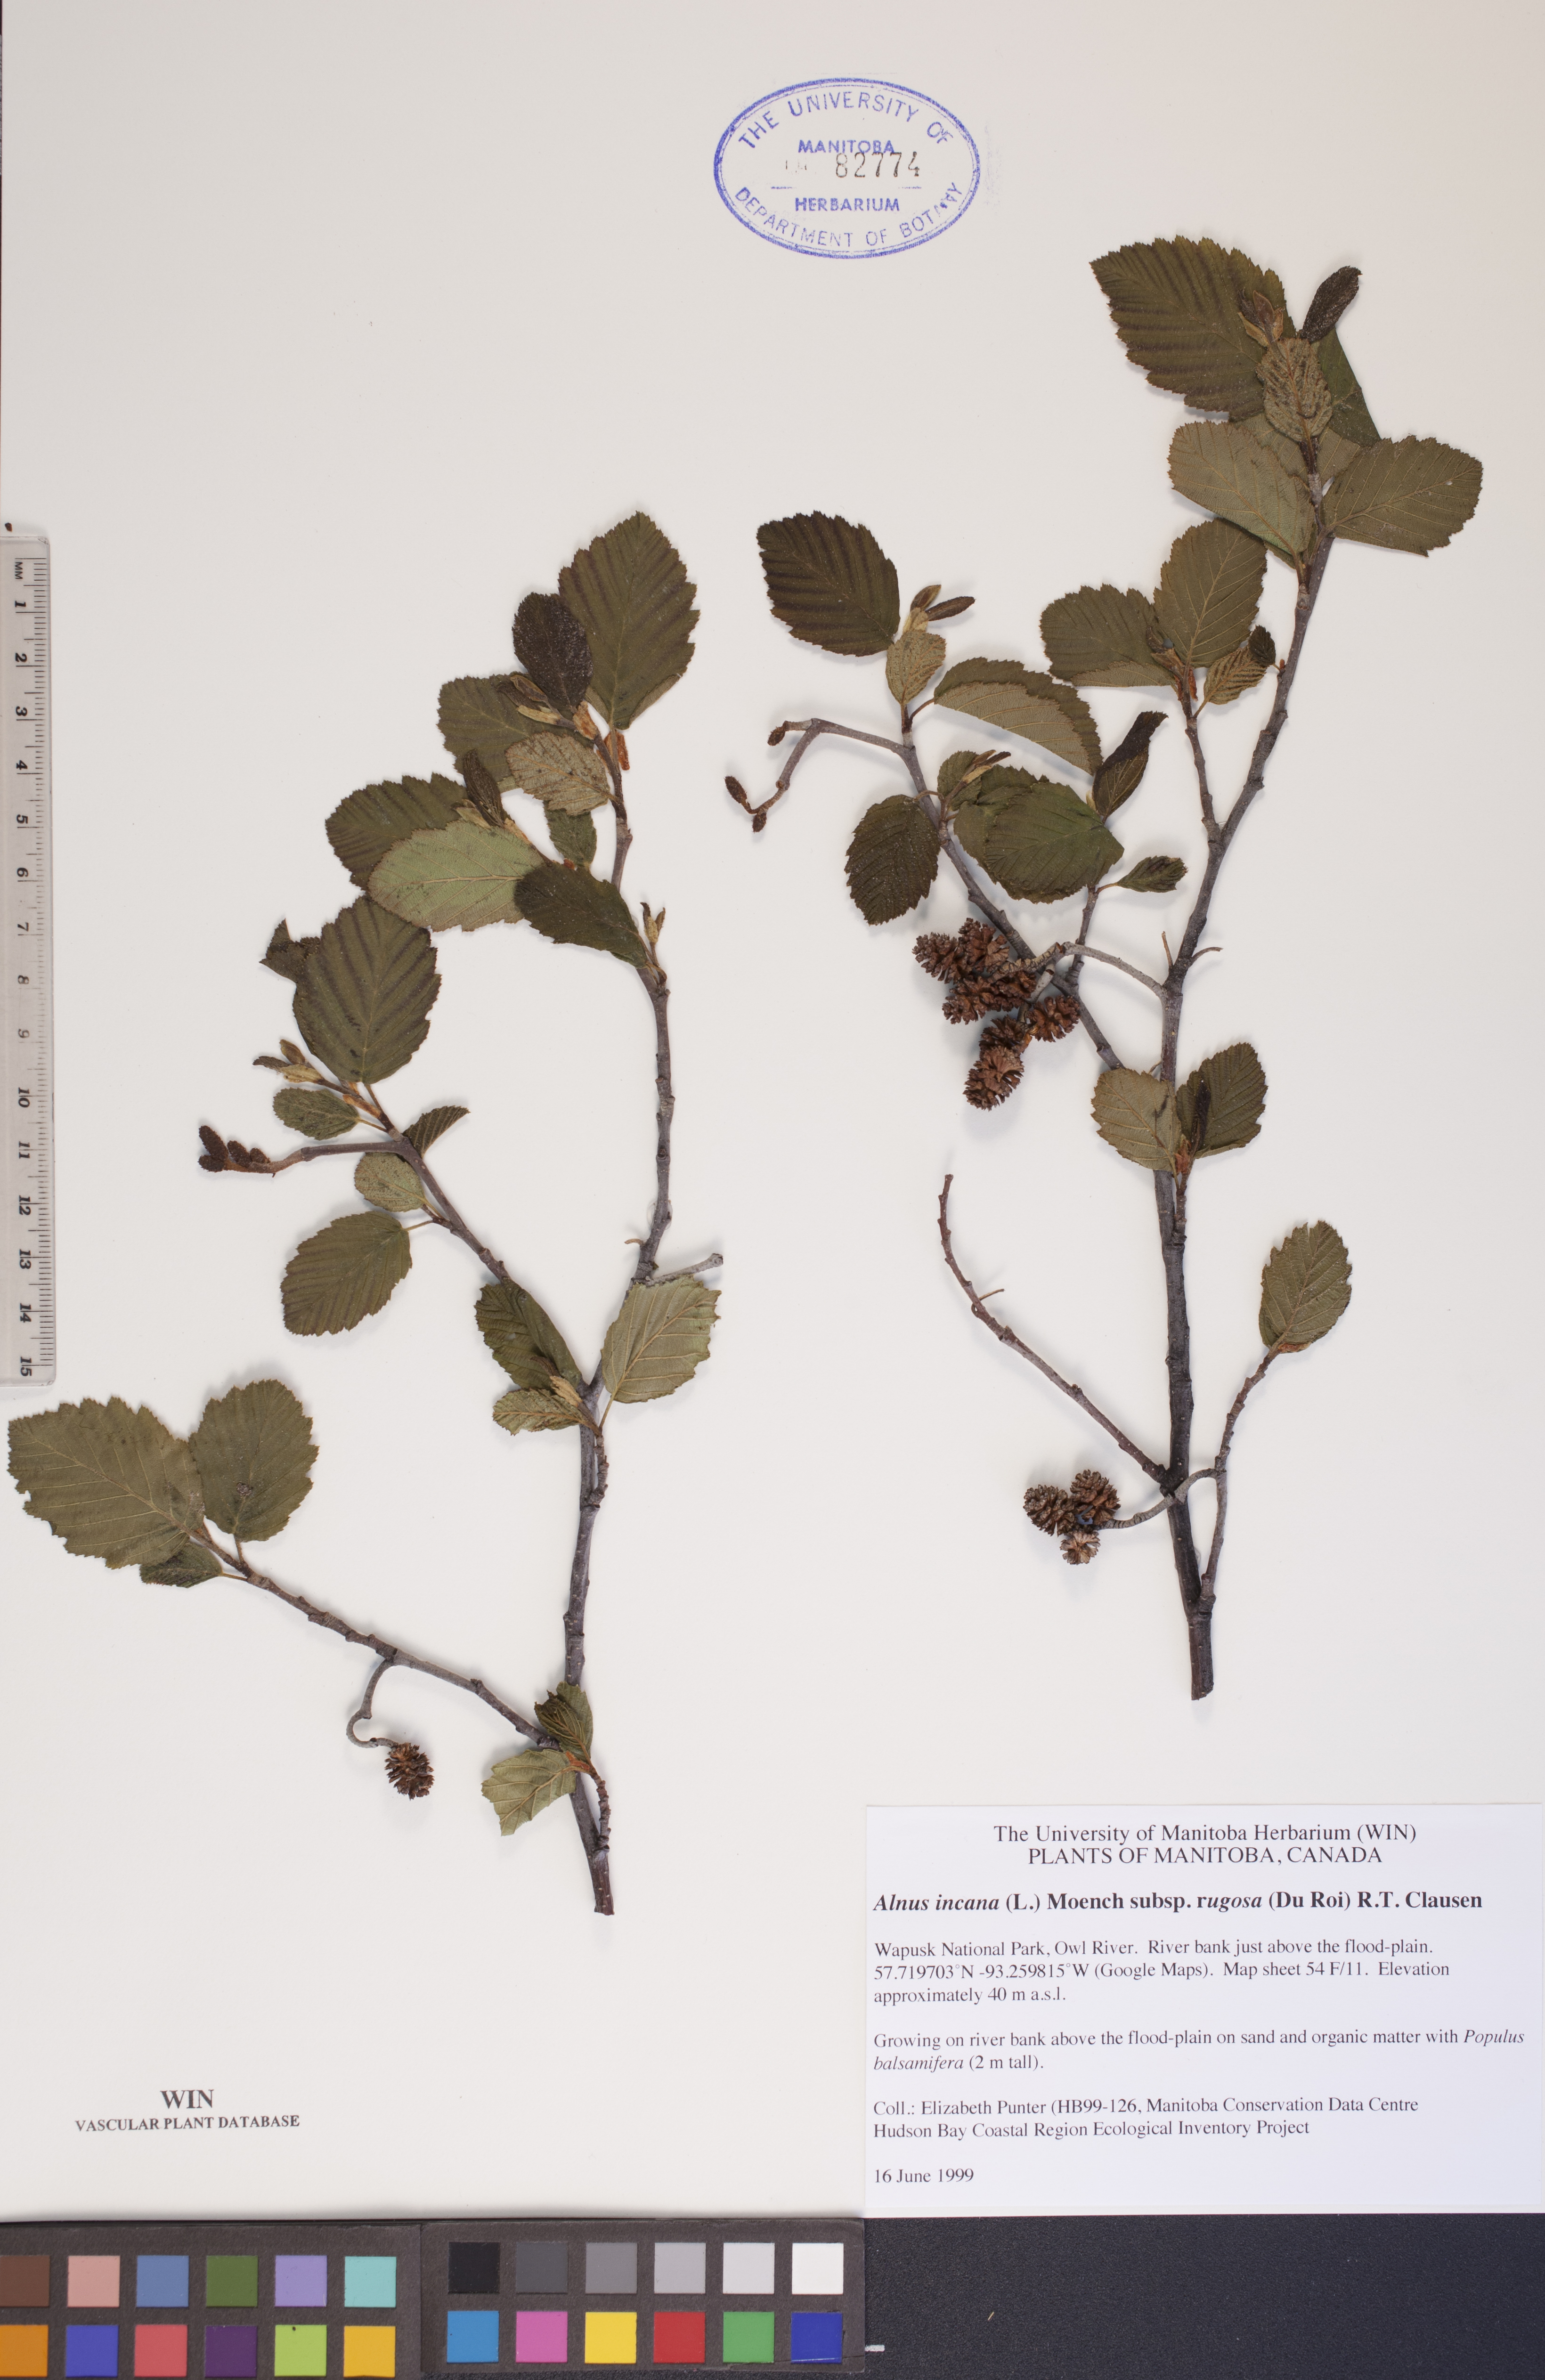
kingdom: Plantae
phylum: Tracheophyta
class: Magnoliopsida
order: Fagales
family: Betulaceae
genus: Alnus
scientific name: Alnus incana
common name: Grey alder
